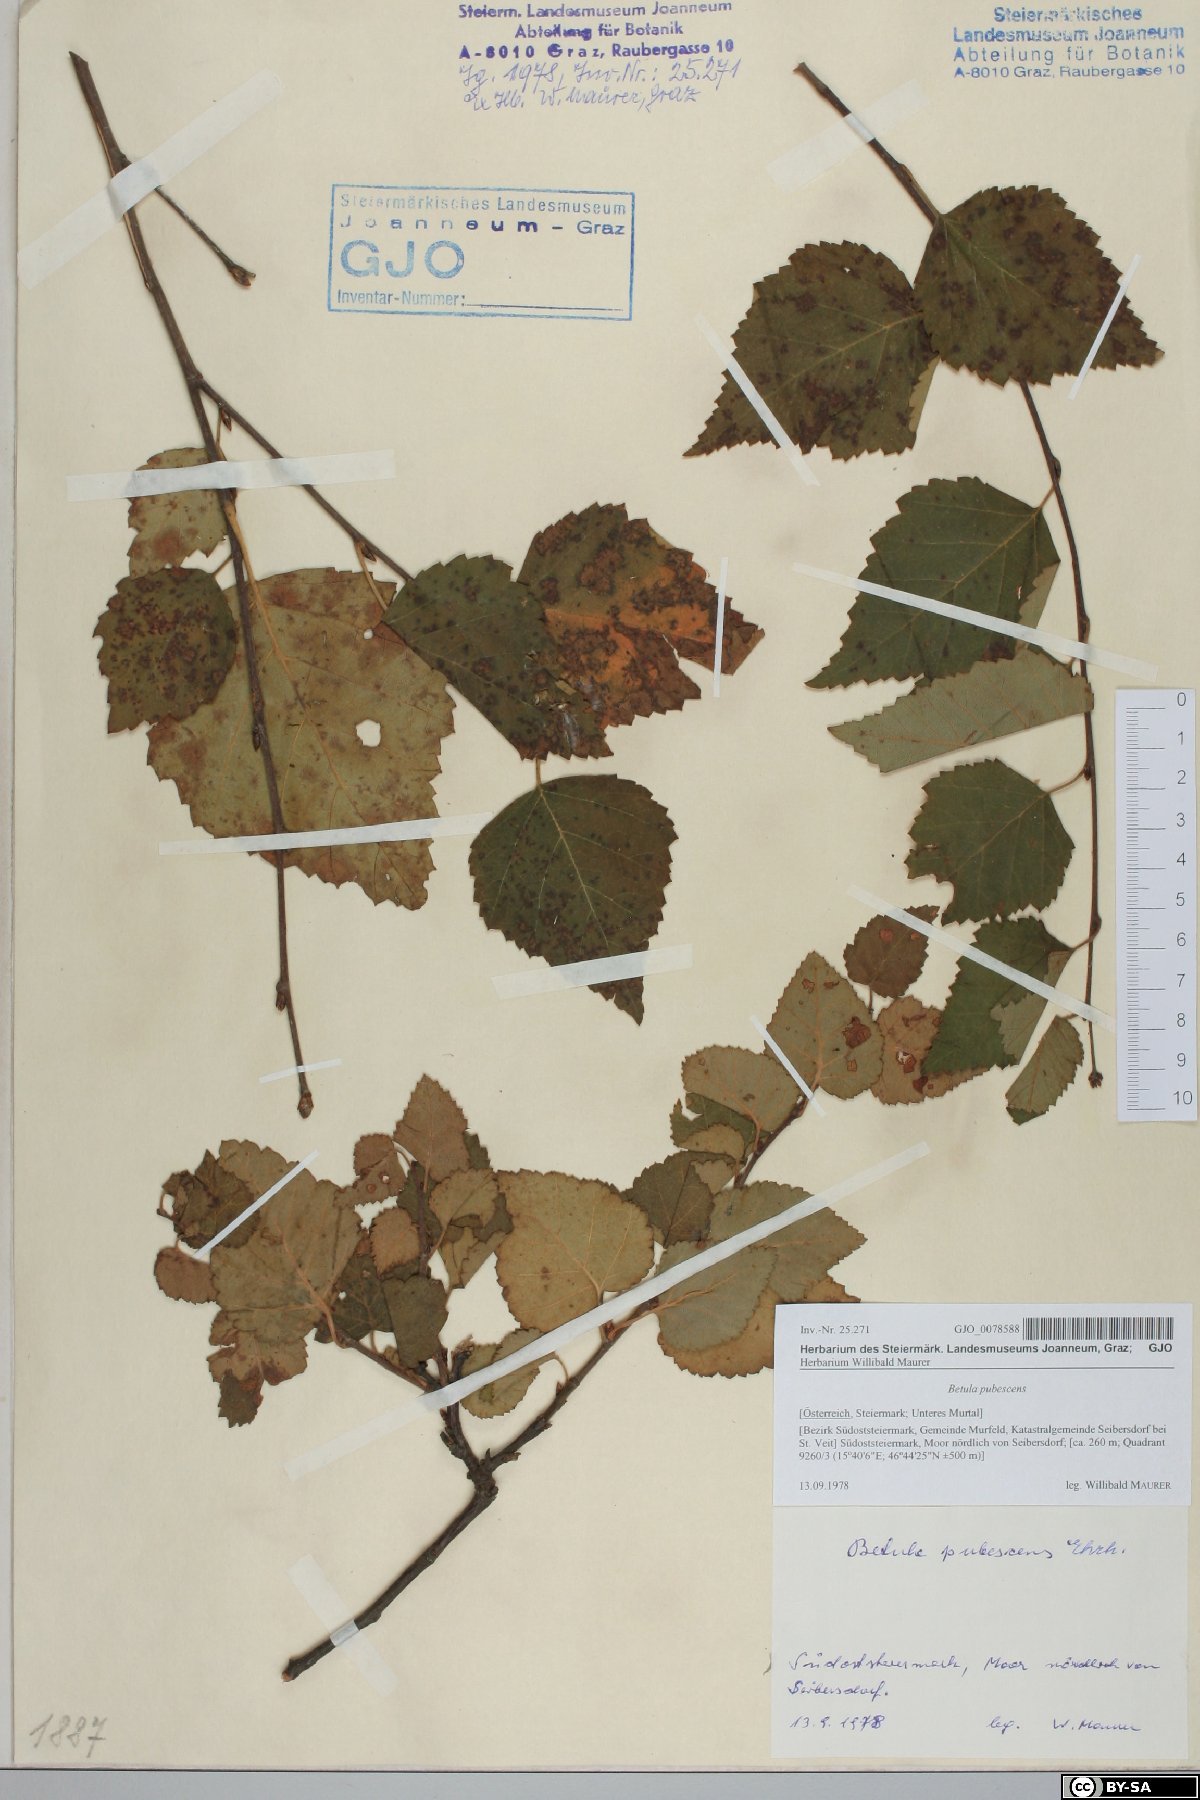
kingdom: Plantae
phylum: Tracheophyta
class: Magnoliopsida
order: Fagales
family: Betulaceae
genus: Betula
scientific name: Betula pubescens
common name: Downy birch
